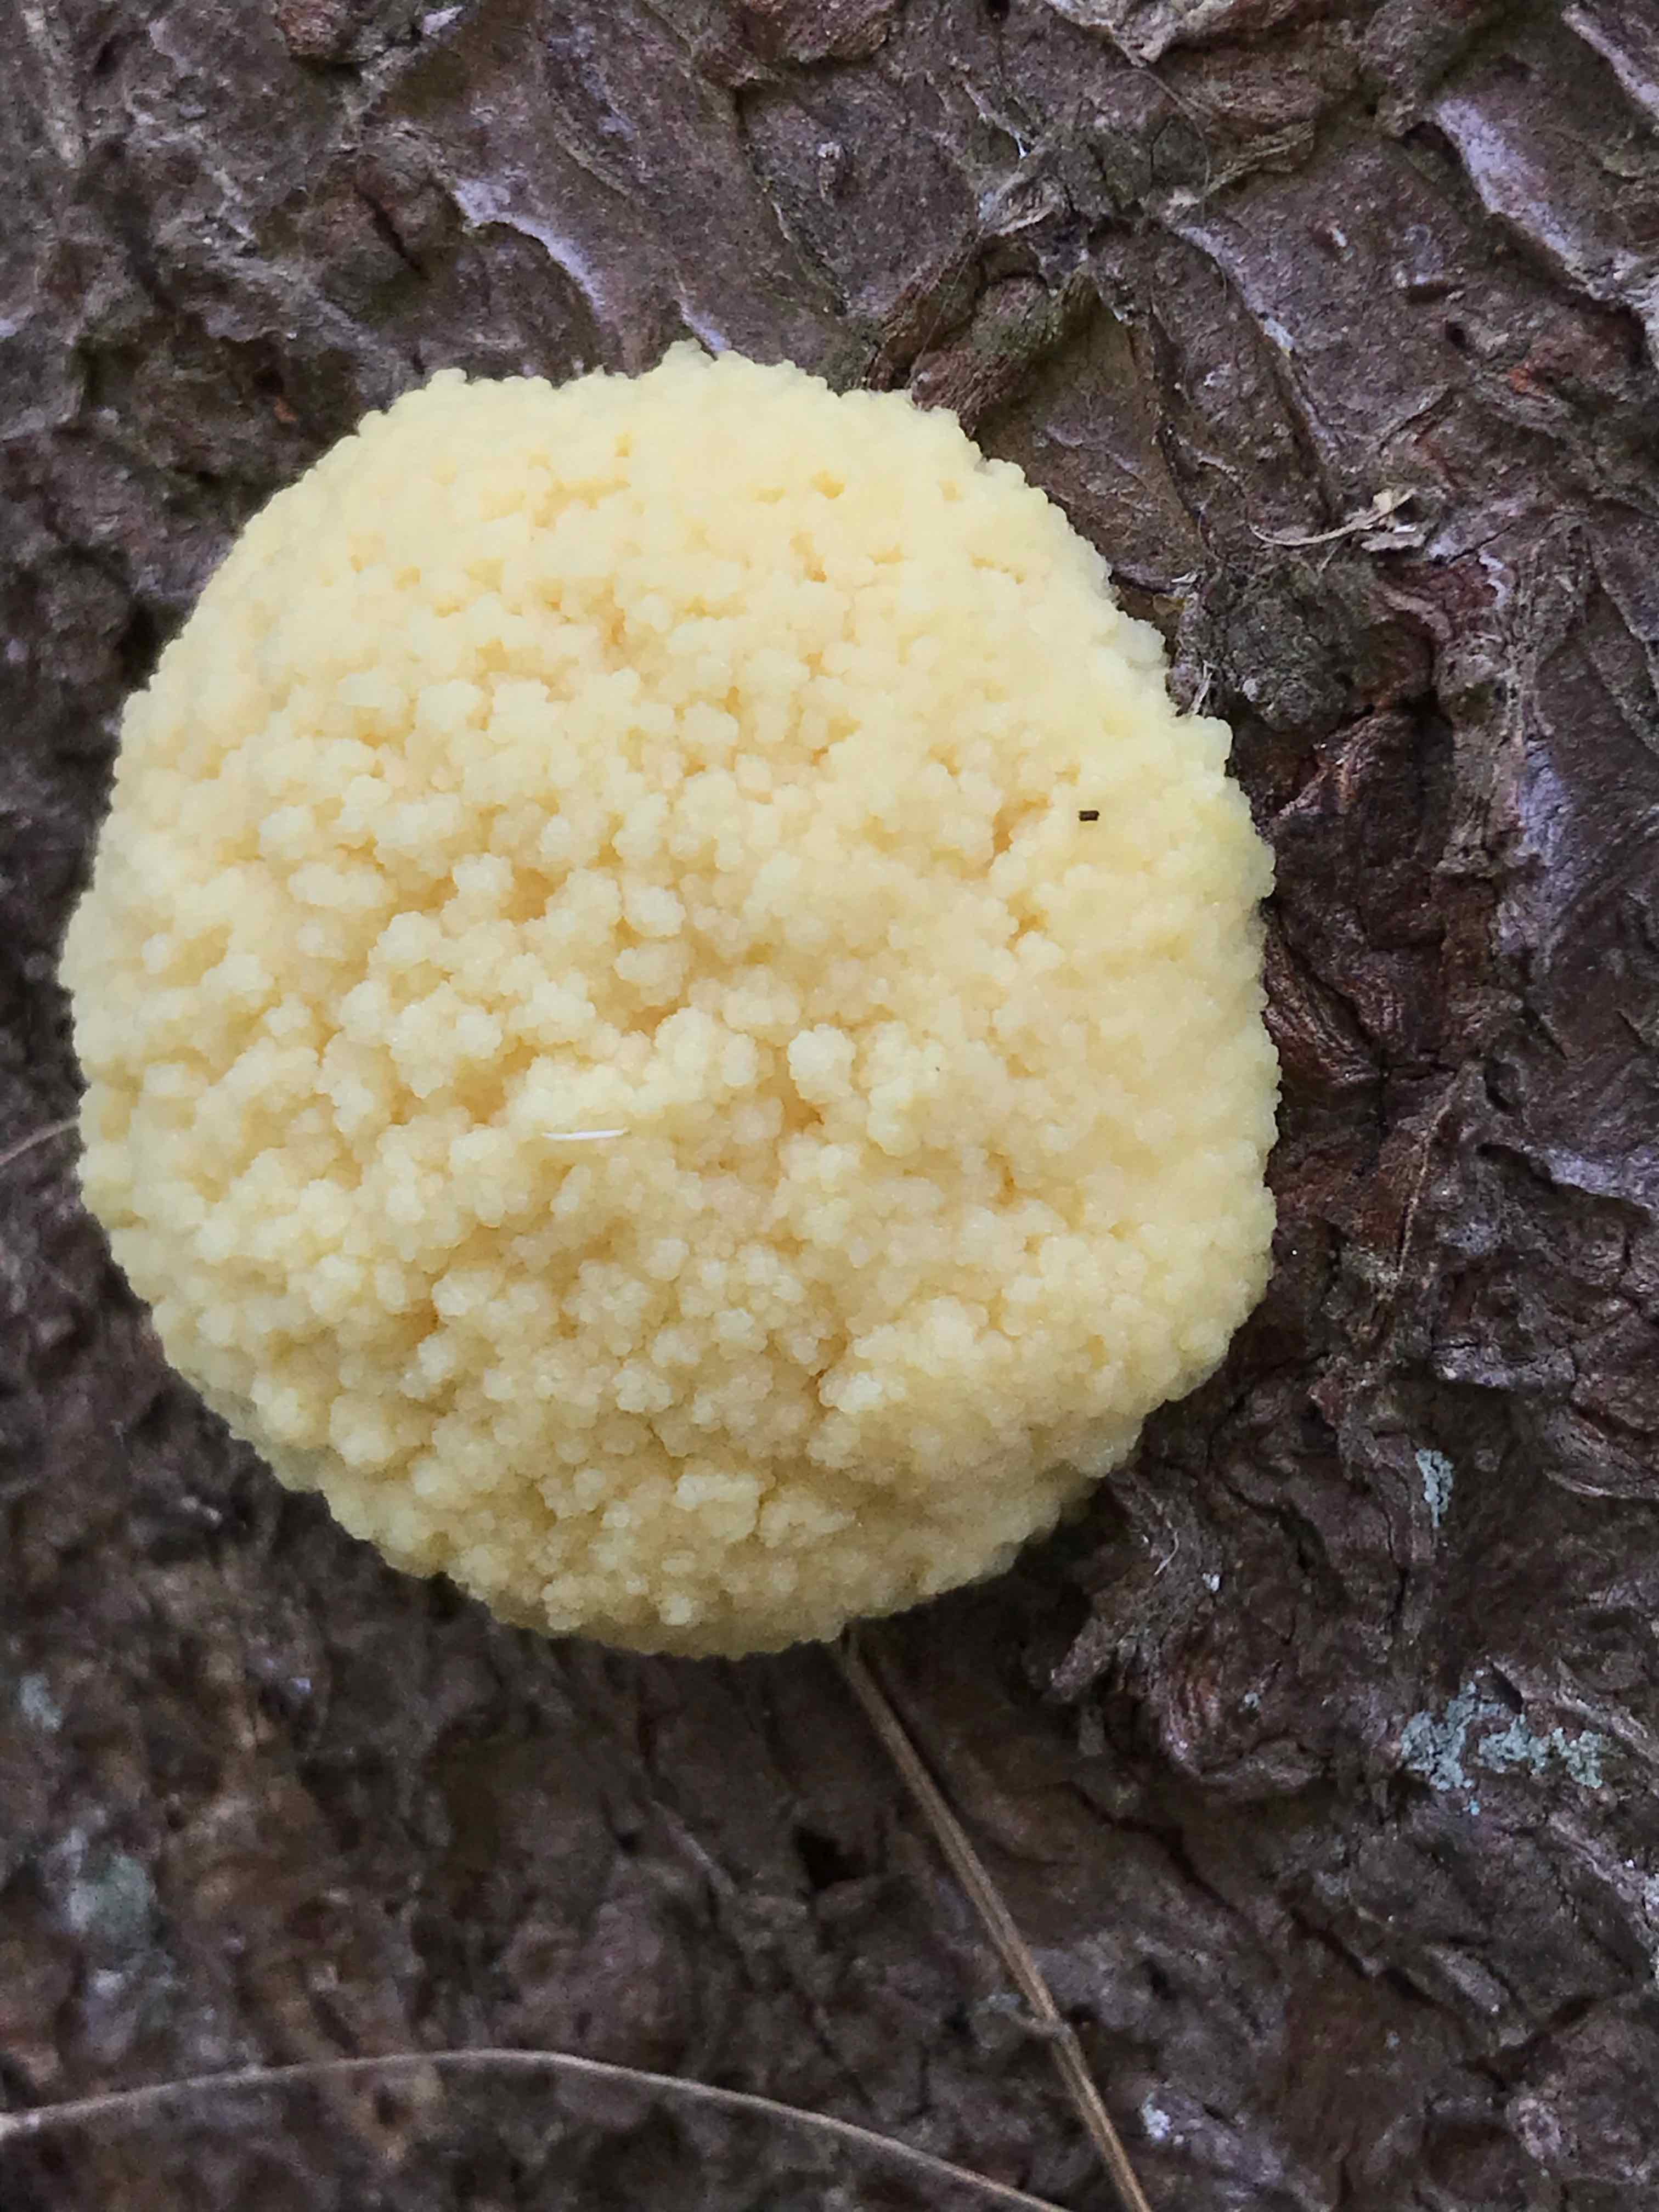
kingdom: Protozoa
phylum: Mycetozoa
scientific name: Mycetozoa
